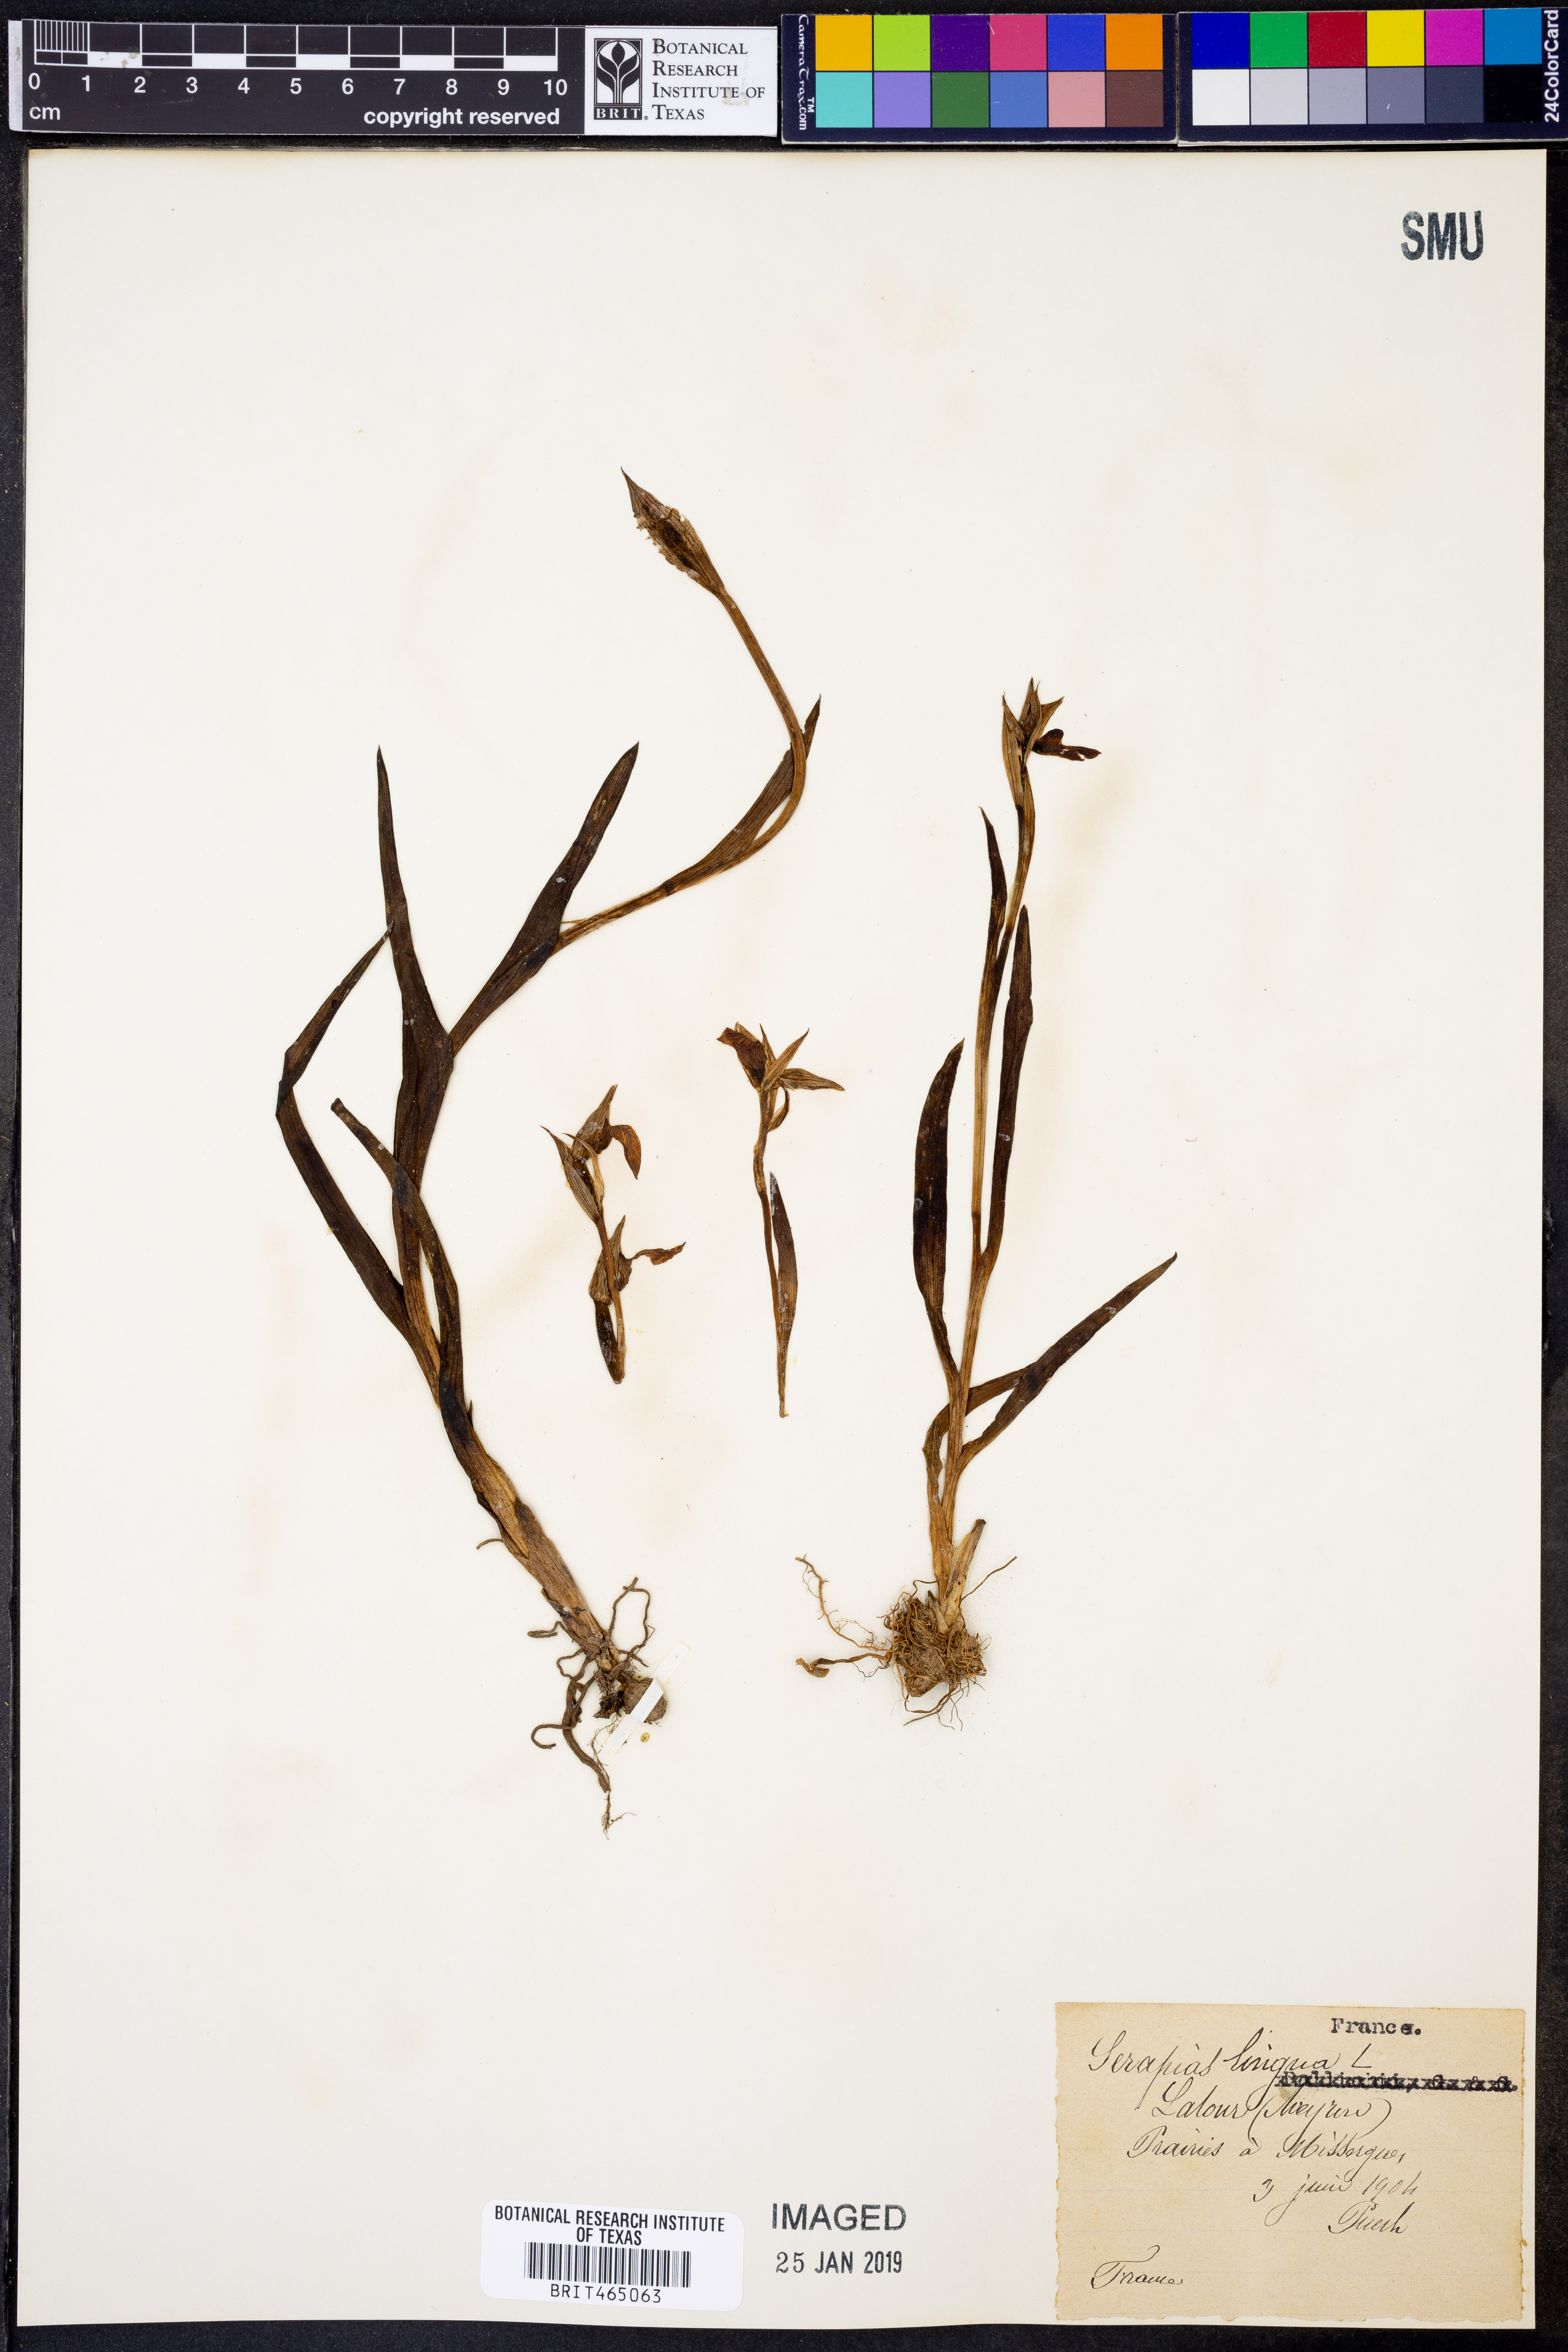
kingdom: Plantae
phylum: Tracheophyta
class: Liliopsida
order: Asparagales
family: Orchidaceae
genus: Serapias
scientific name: Serapias lingua
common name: Tongue-orchid
